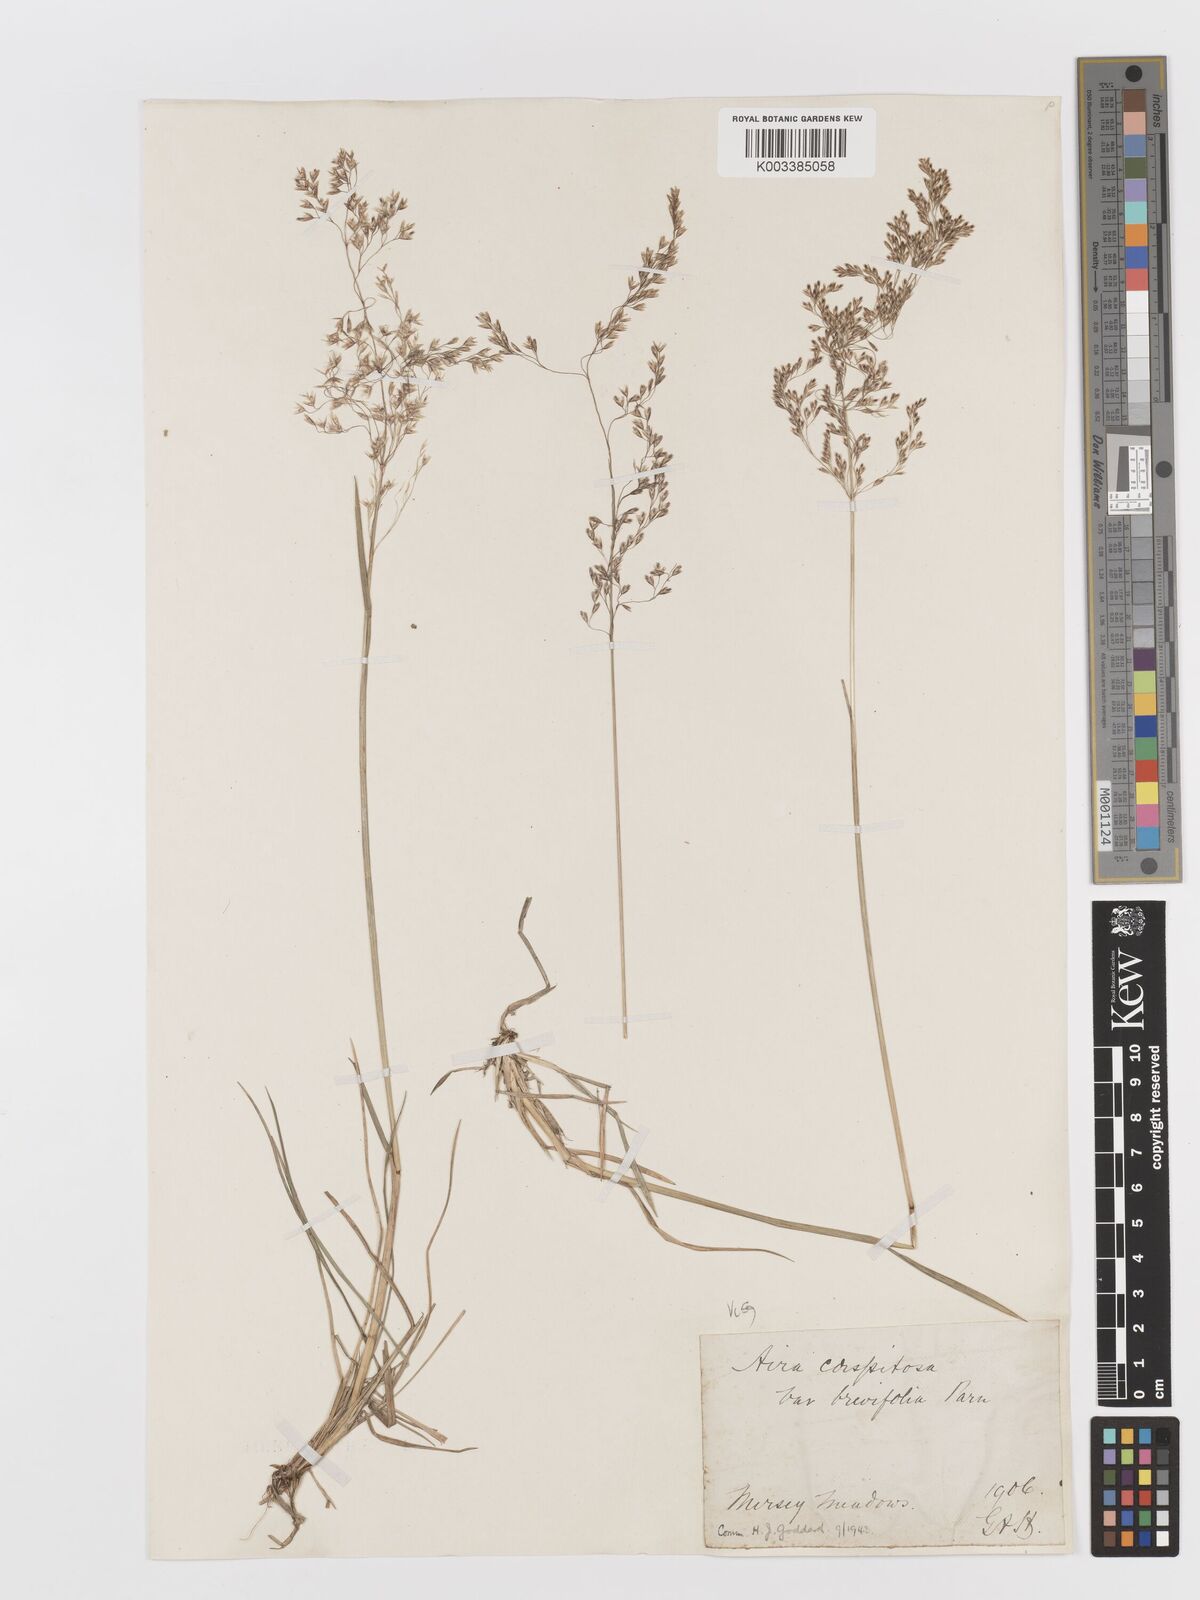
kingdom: Plantae
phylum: Tracheophyta
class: Liliopsida
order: Poales
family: Poaceae
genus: Deschampsia
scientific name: Deschampsia cespitosa
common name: Tufted hair-grass
